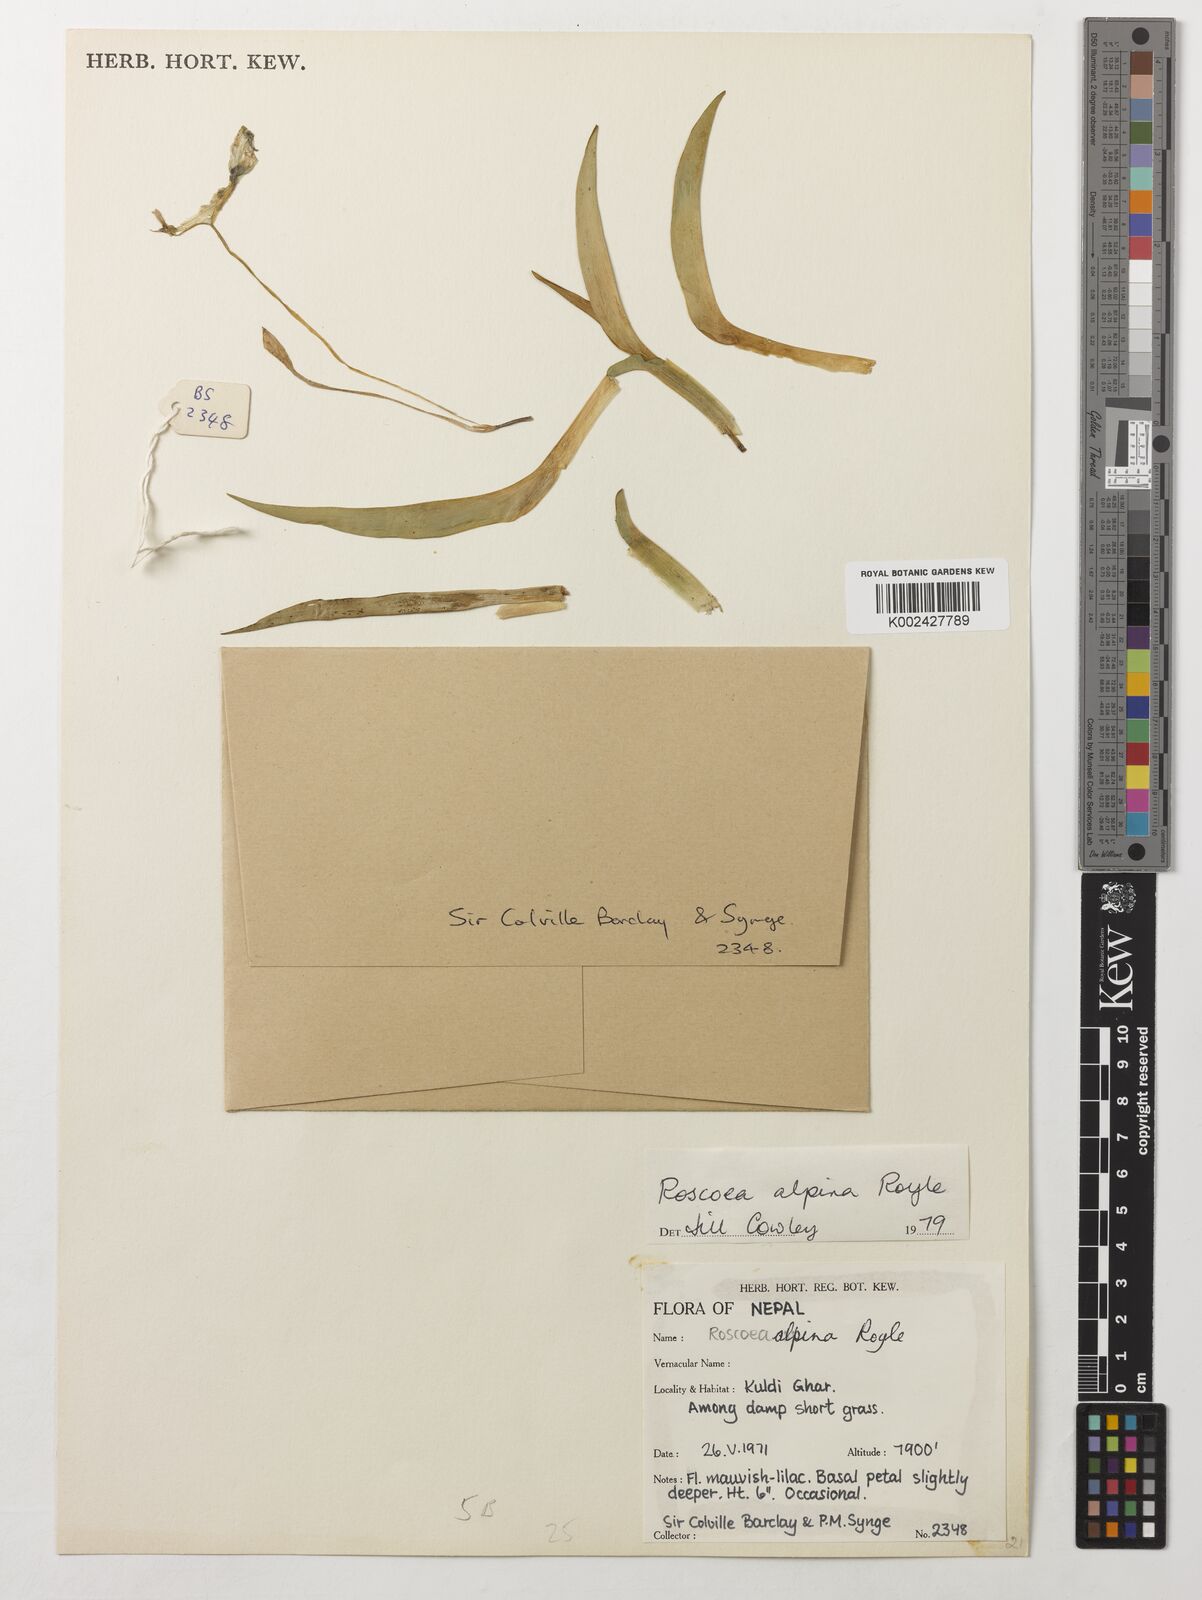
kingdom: Plantae
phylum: Tracheophyta
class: Liliopsida
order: Zingiberales
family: Zingiberaceae
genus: Roscoea
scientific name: Roscoea alpina
